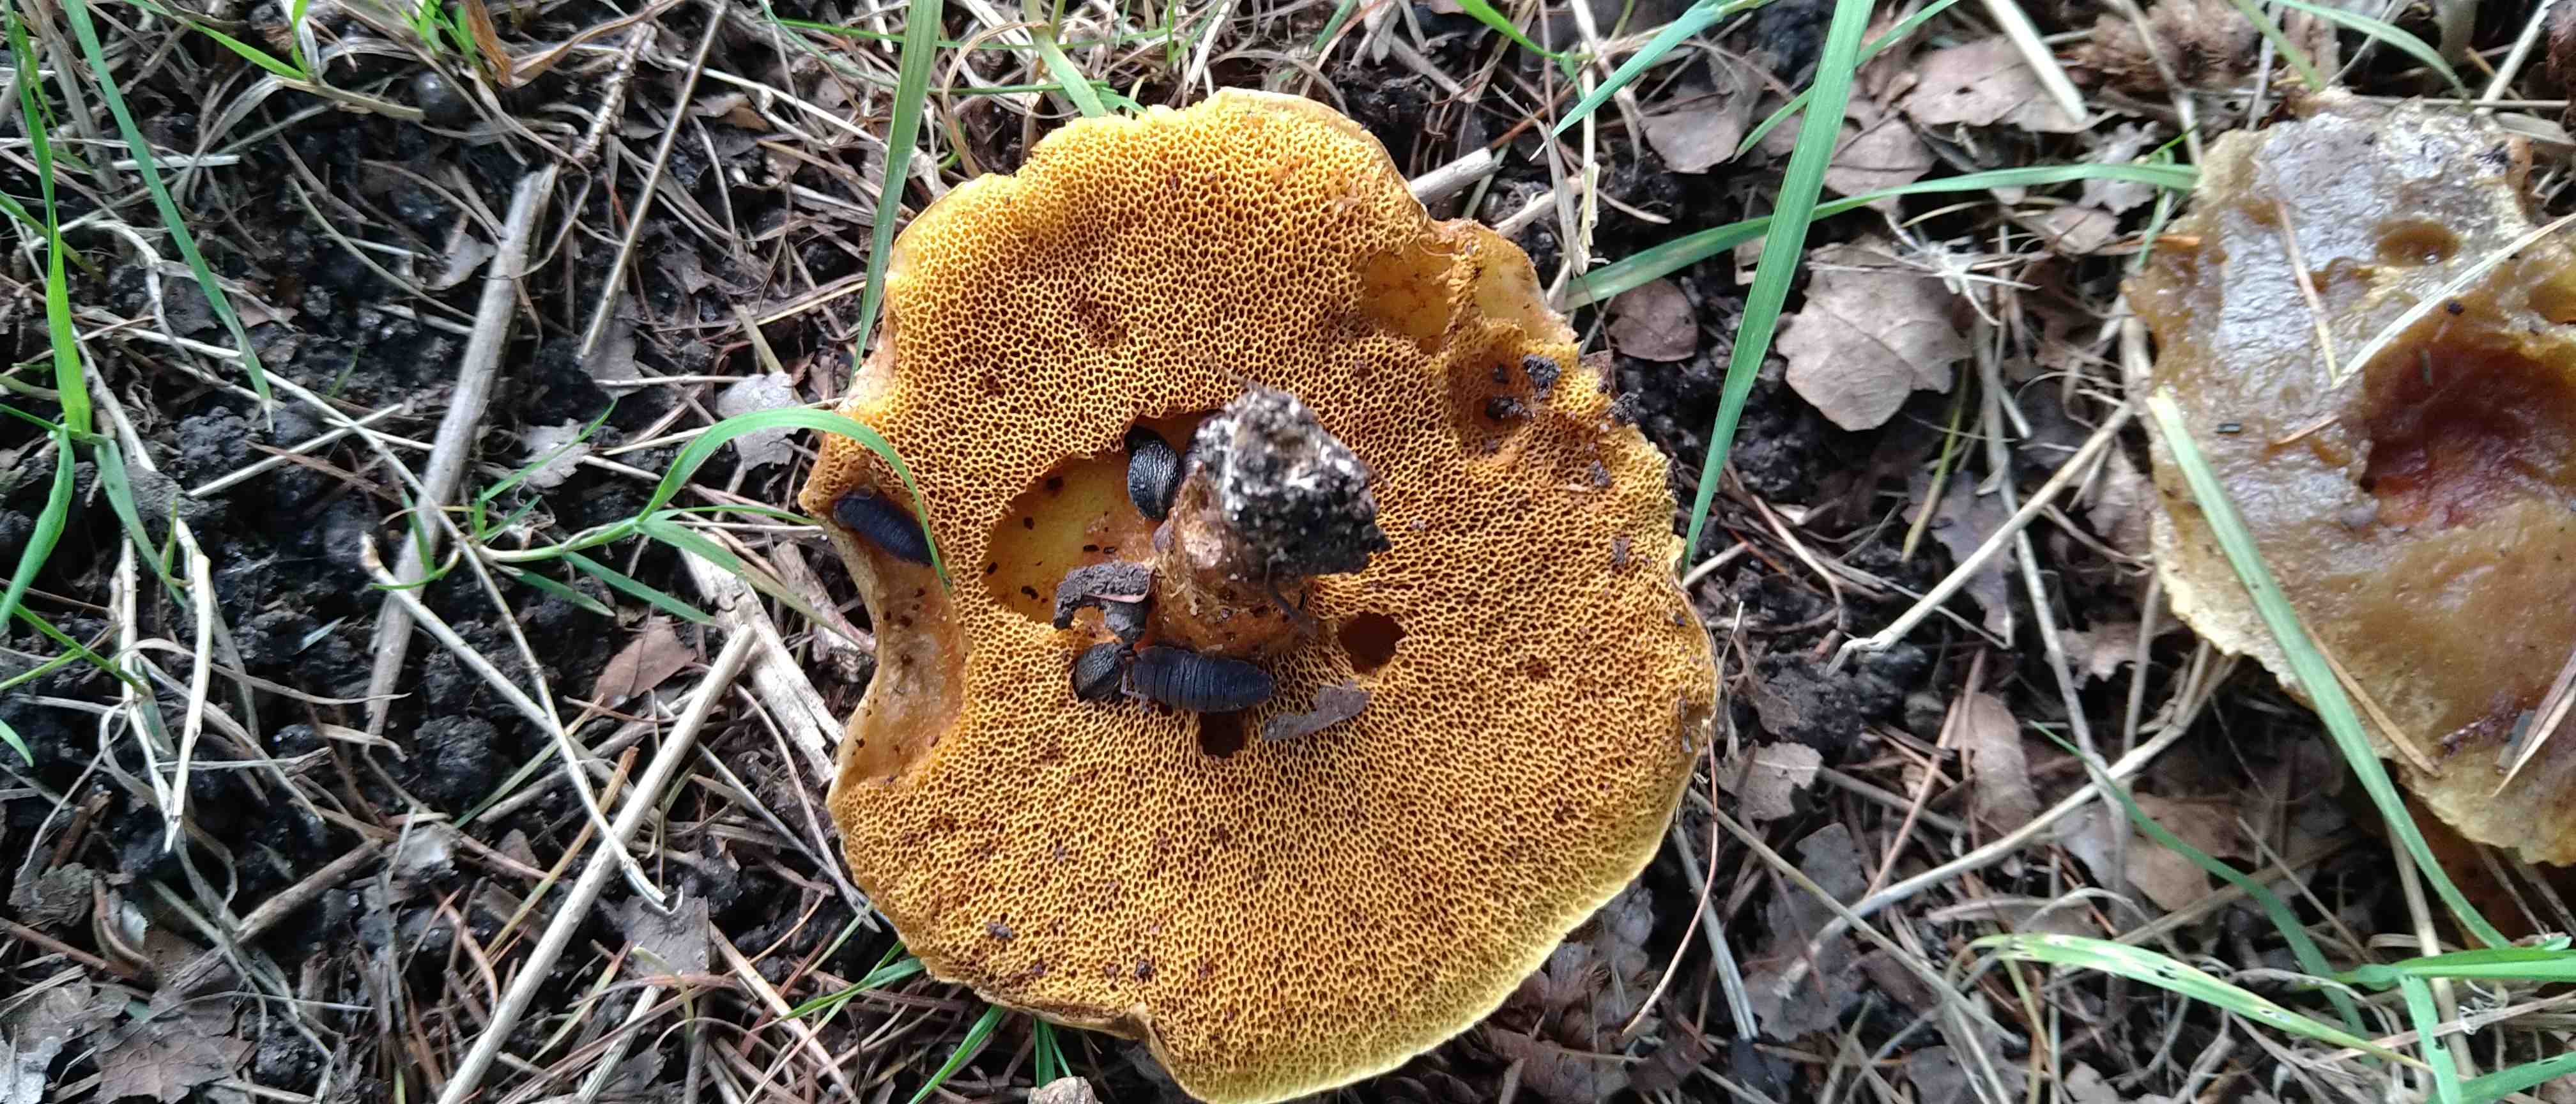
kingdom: Fungi
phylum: Basidiomycota
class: Agaricomycetes
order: Boletales
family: Suillaceae
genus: Suillus
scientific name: Suillus grevillei
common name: lærke-slimrørhat
